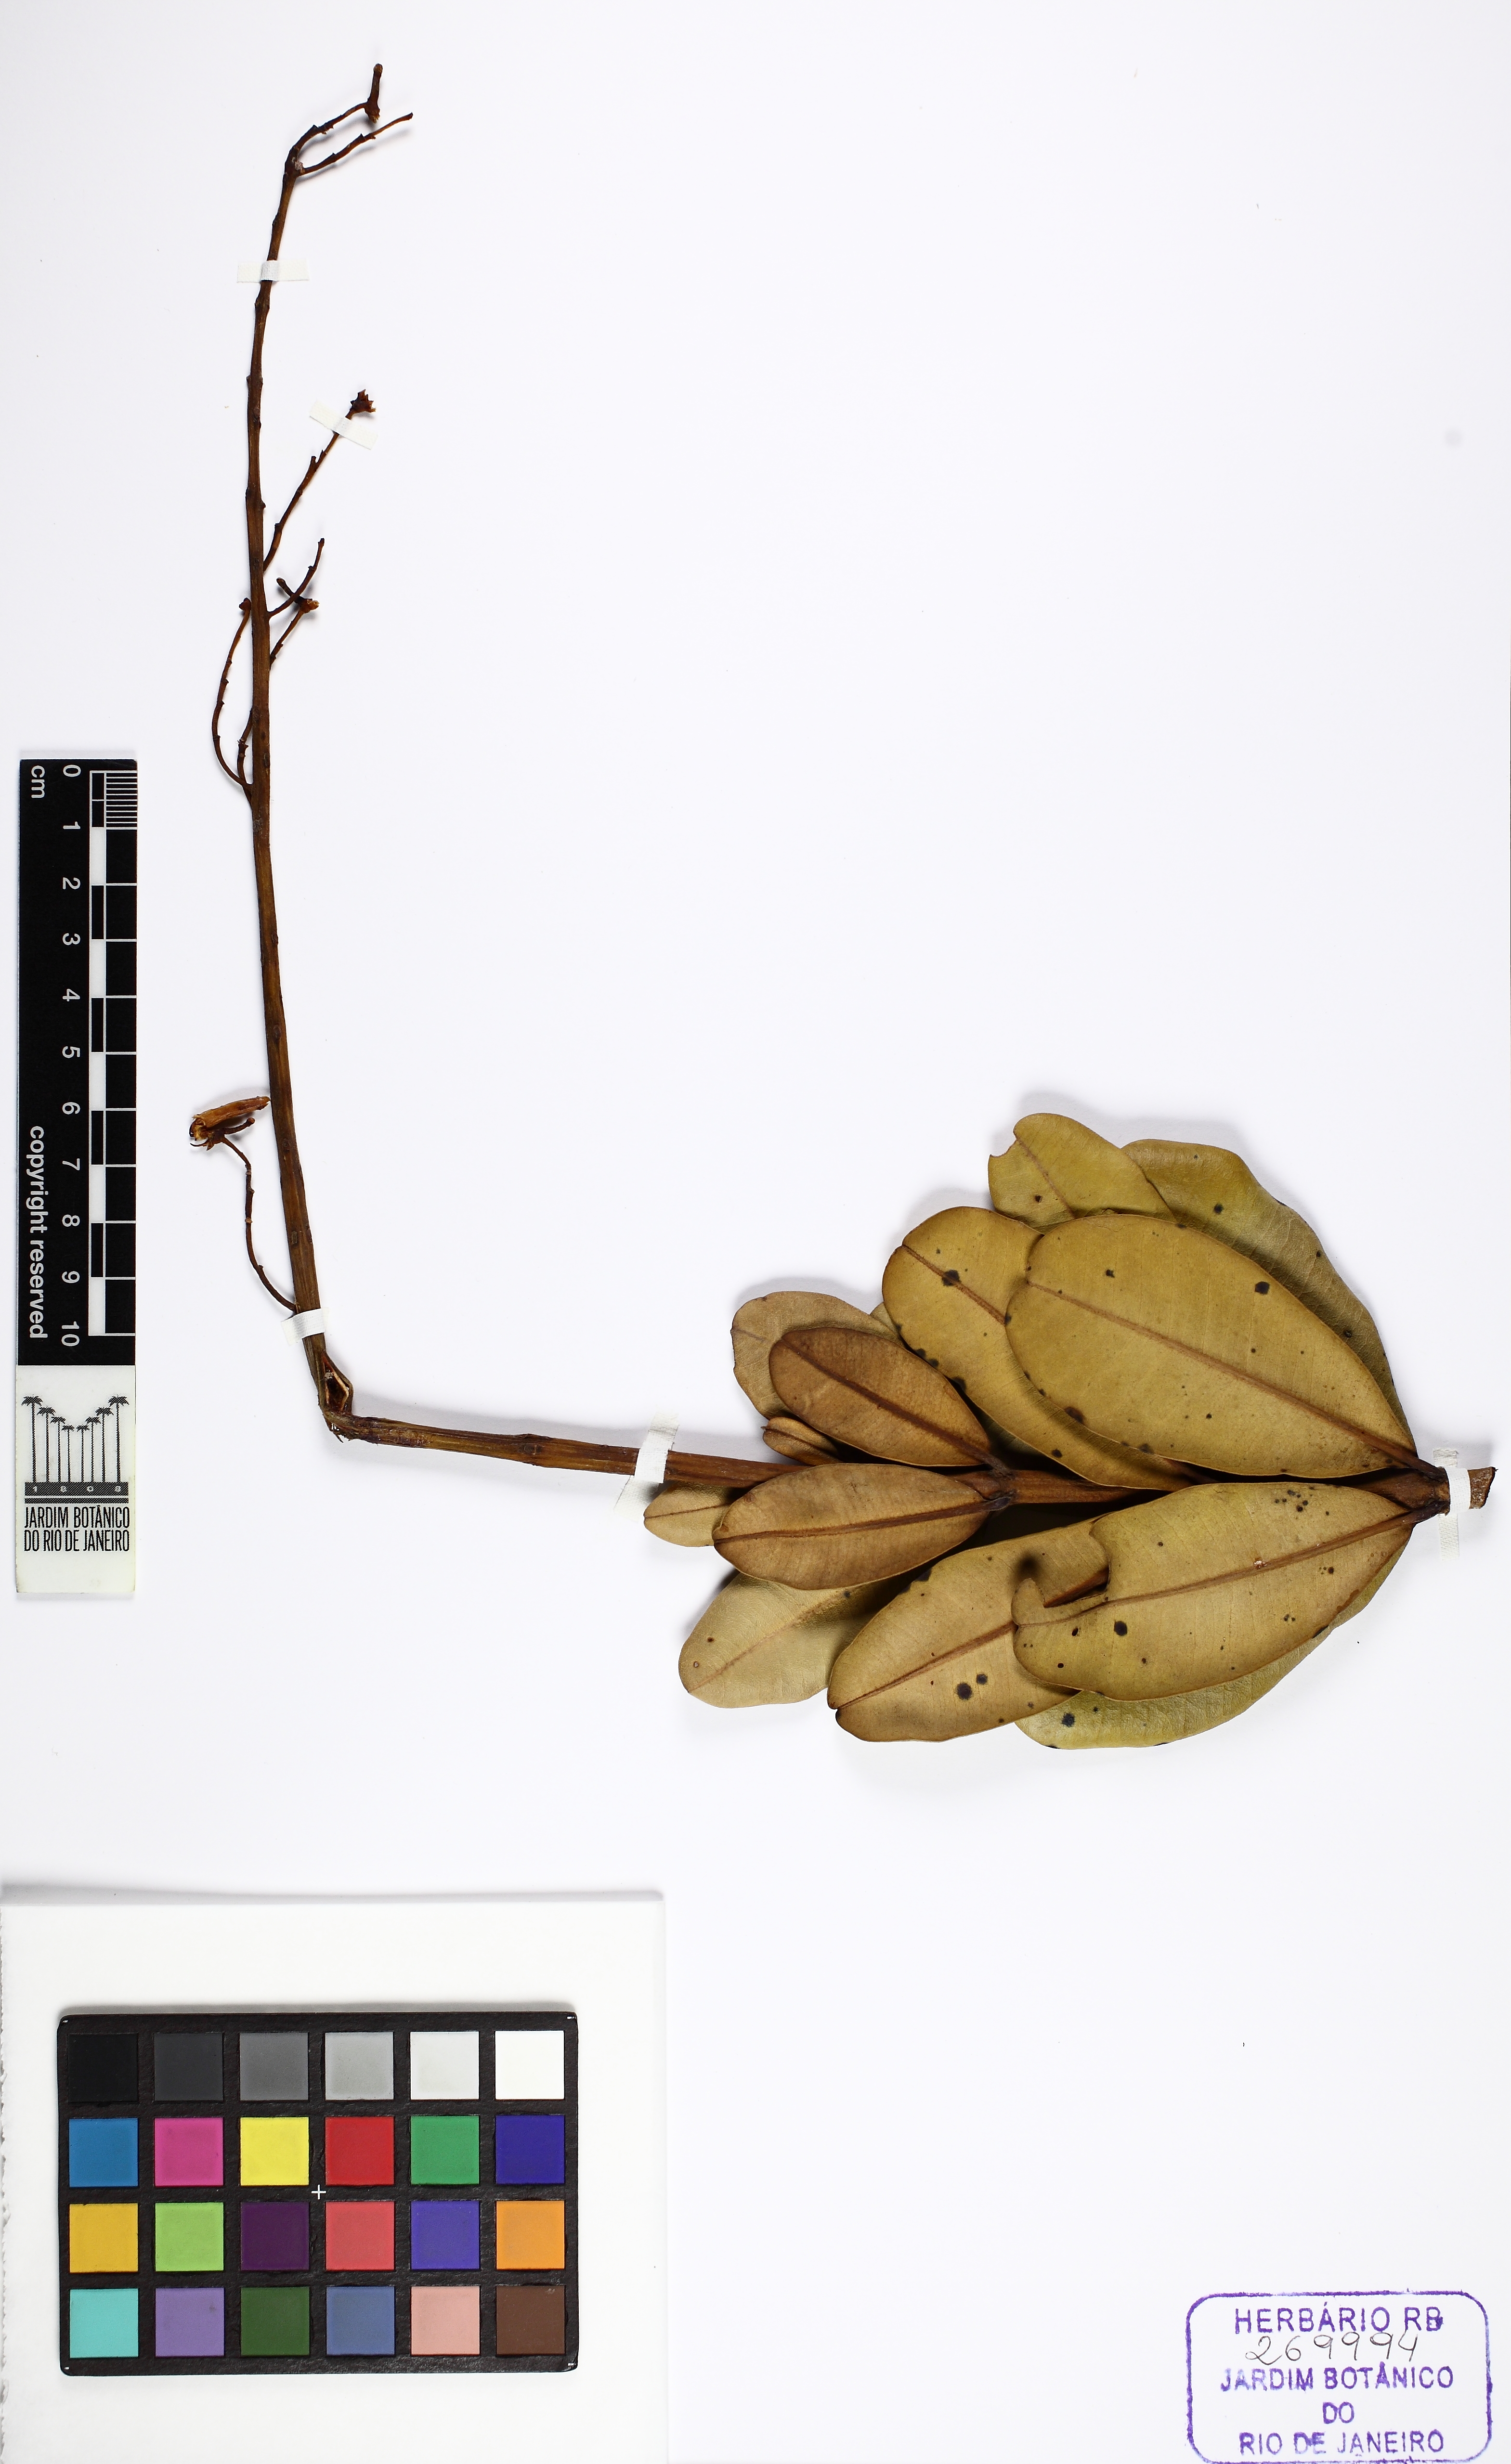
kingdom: Plantae
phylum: Tracheophyta
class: Magnoliopsida
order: Myrtales
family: Vochysiaceae
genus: Vochysia
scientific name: Vochysia thyrsoidea
